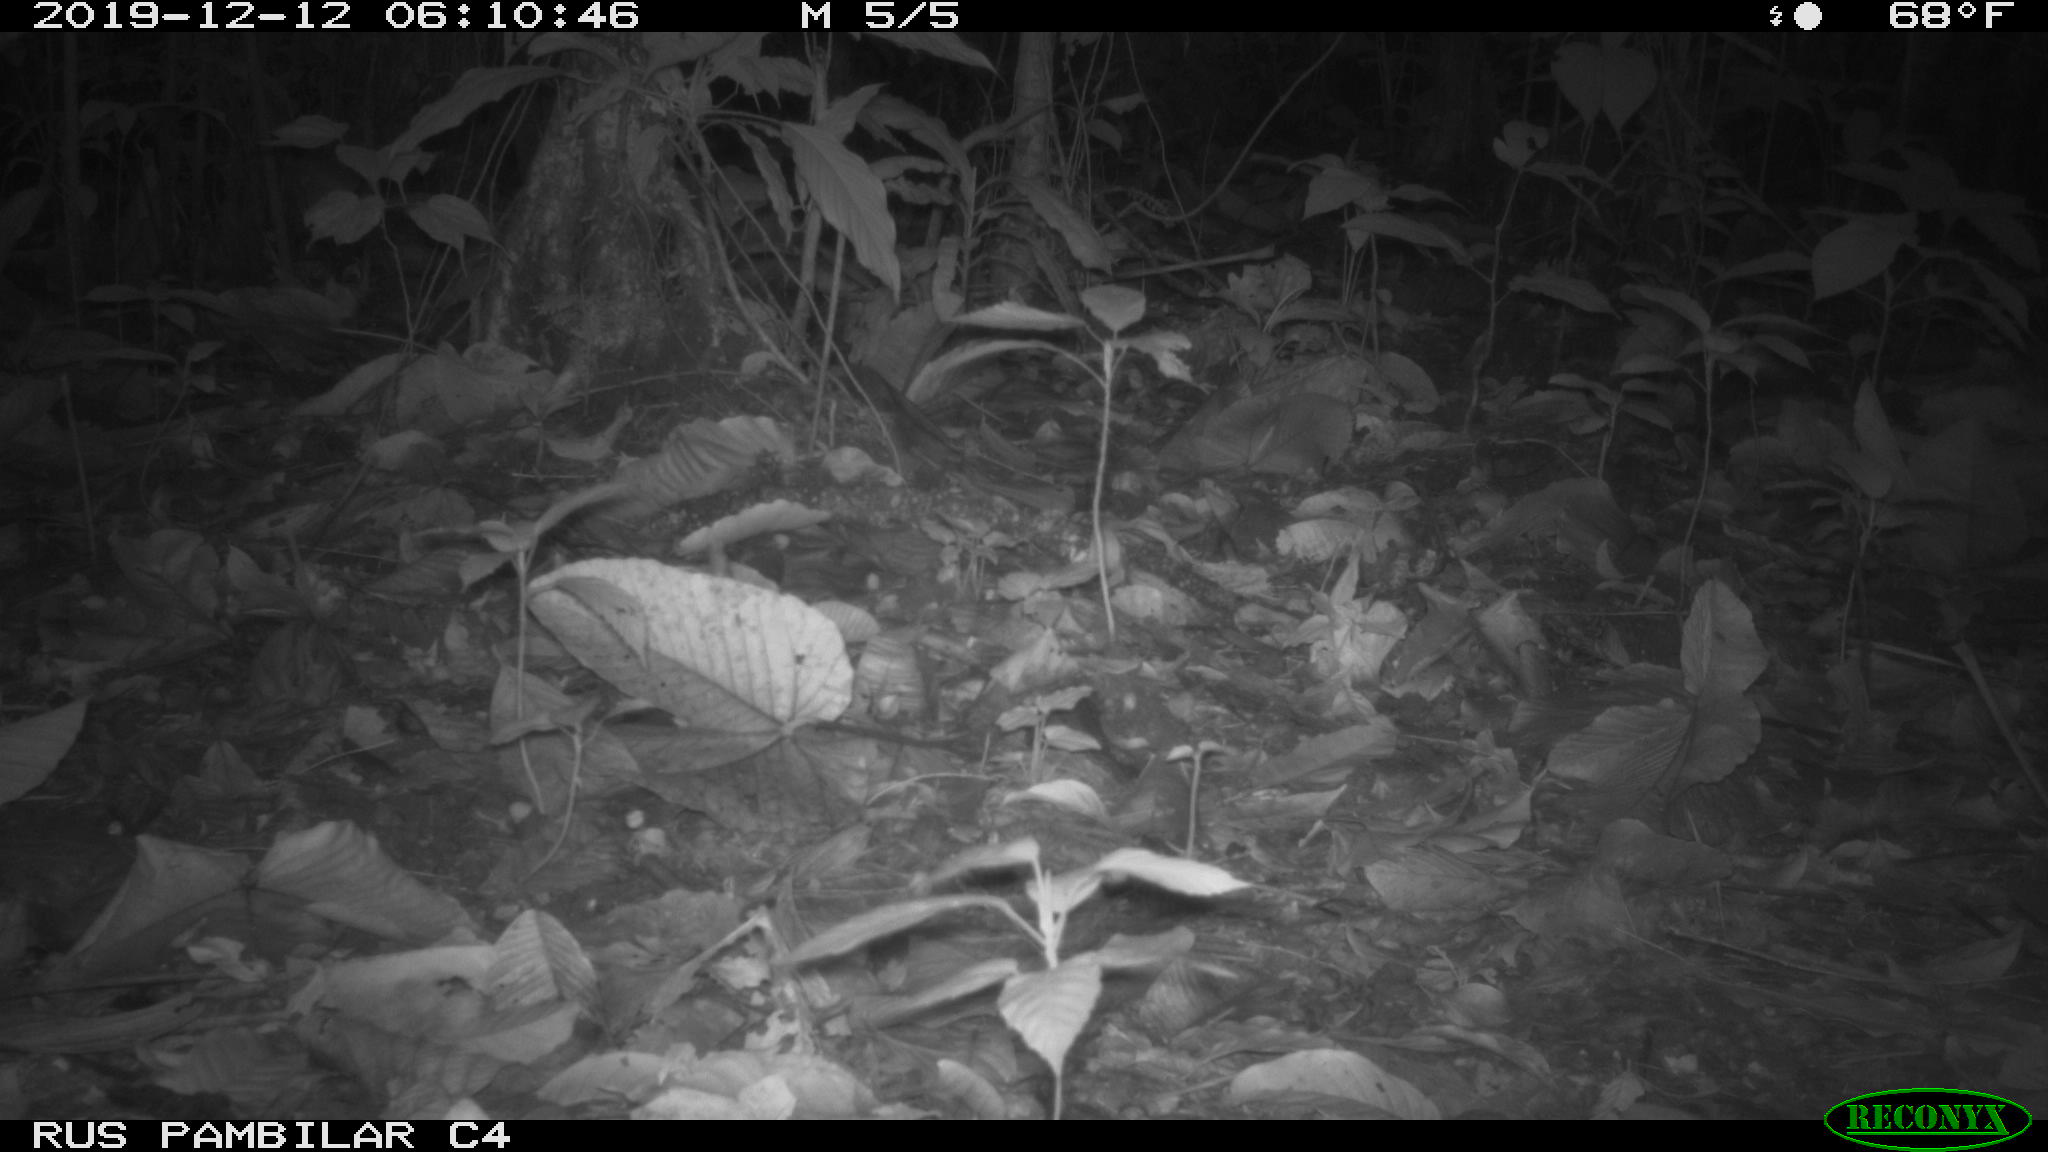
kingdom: Animalia
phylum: Chordata
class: Aves
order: Columbiformes
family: Columbidae
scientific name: Columbidae
